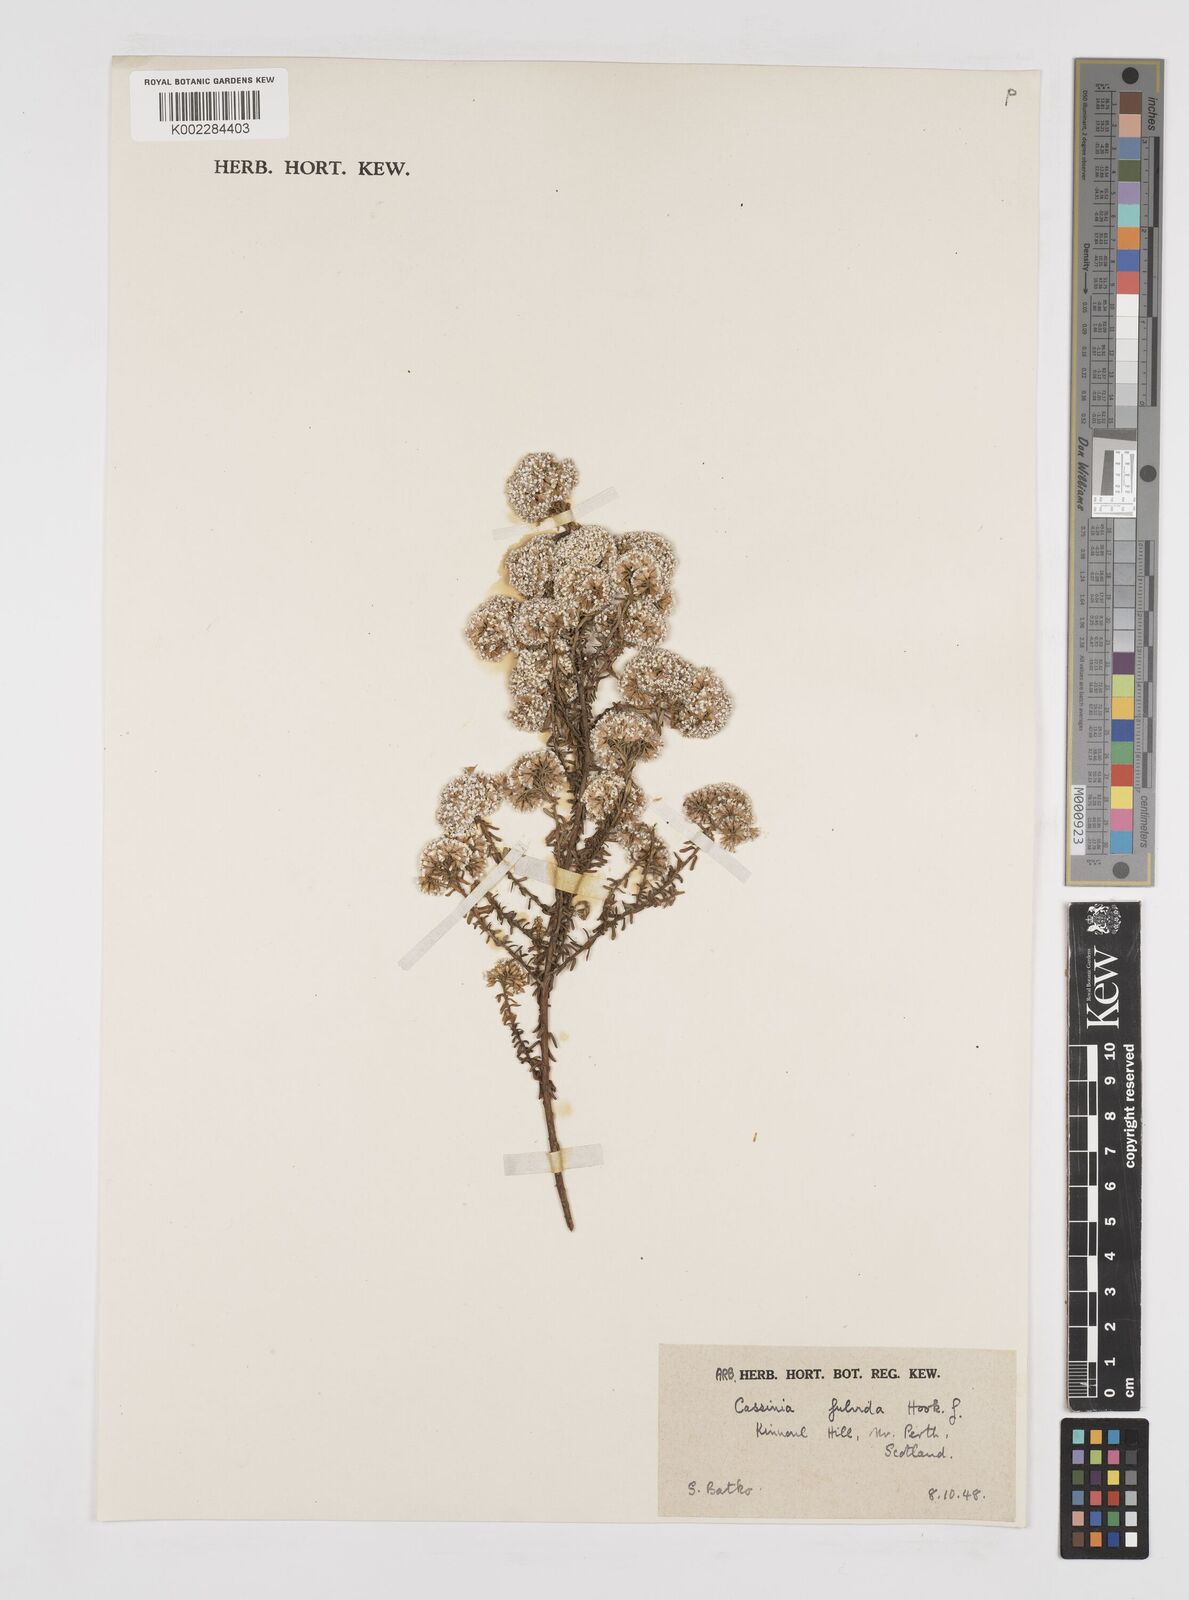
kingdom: Plantae
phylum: Tracheophyta
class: Magnoliopsida
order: Asterales
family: Asteraceae
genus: Ozothamnus
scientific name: Ozothamnus leptophyllus
